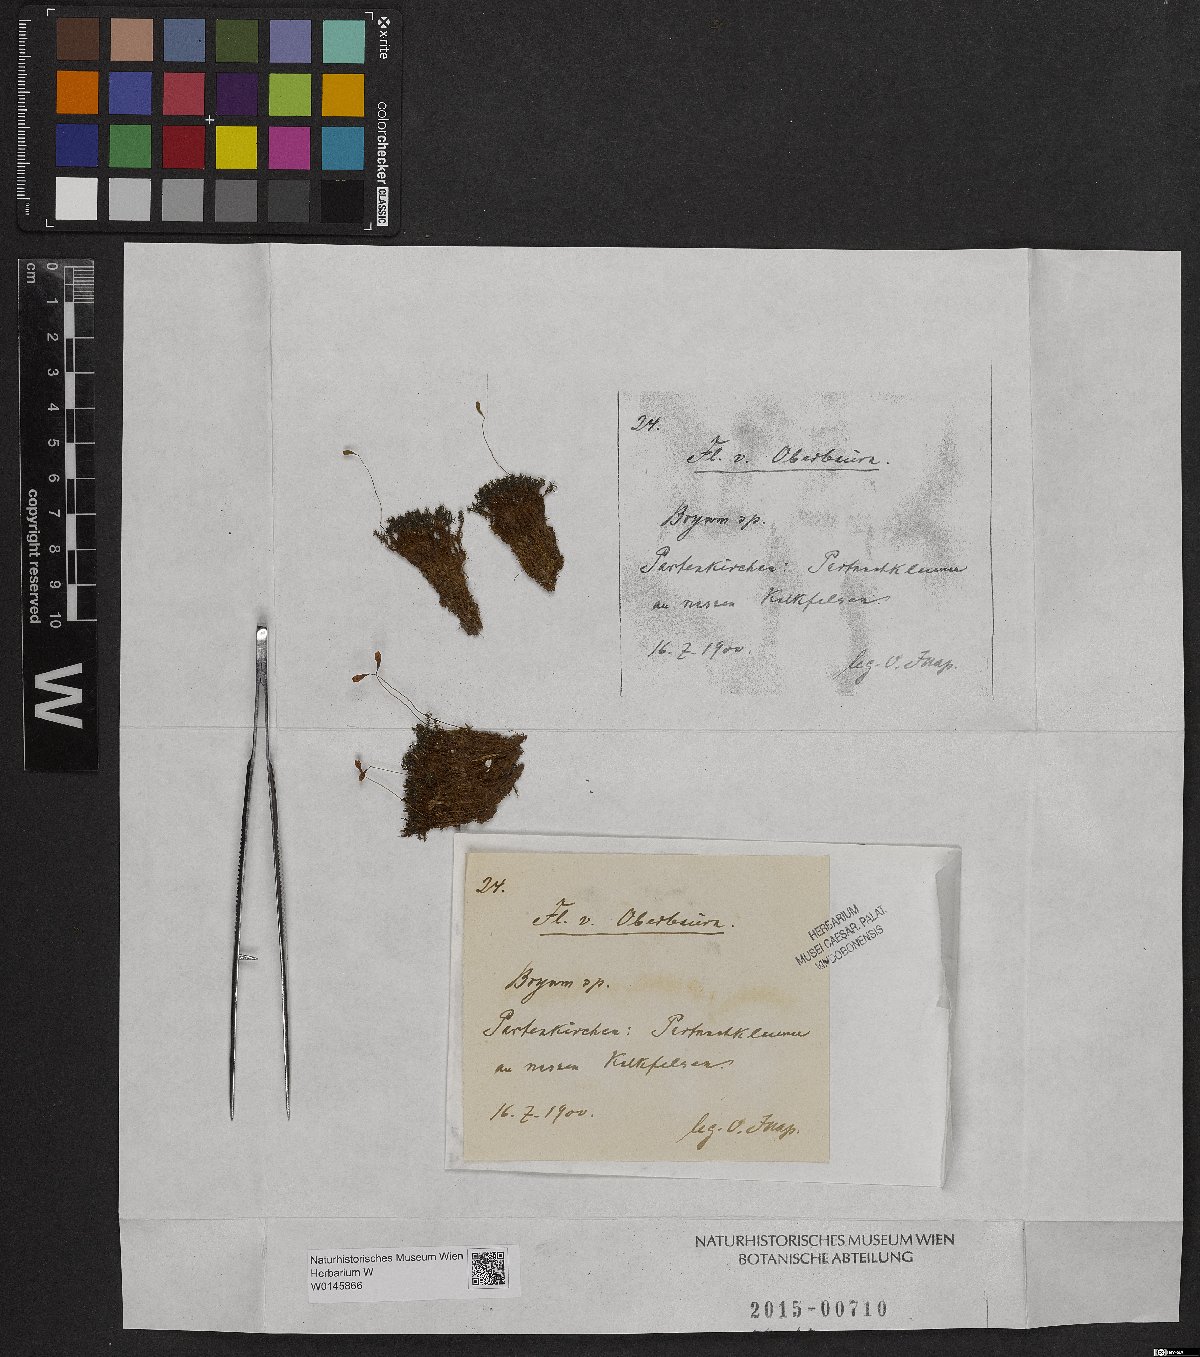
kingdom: Plantae
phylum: Bryophyta
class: Bryopsida
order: Bryales
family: Bryaceae
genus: Bryum
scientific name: Bryum
